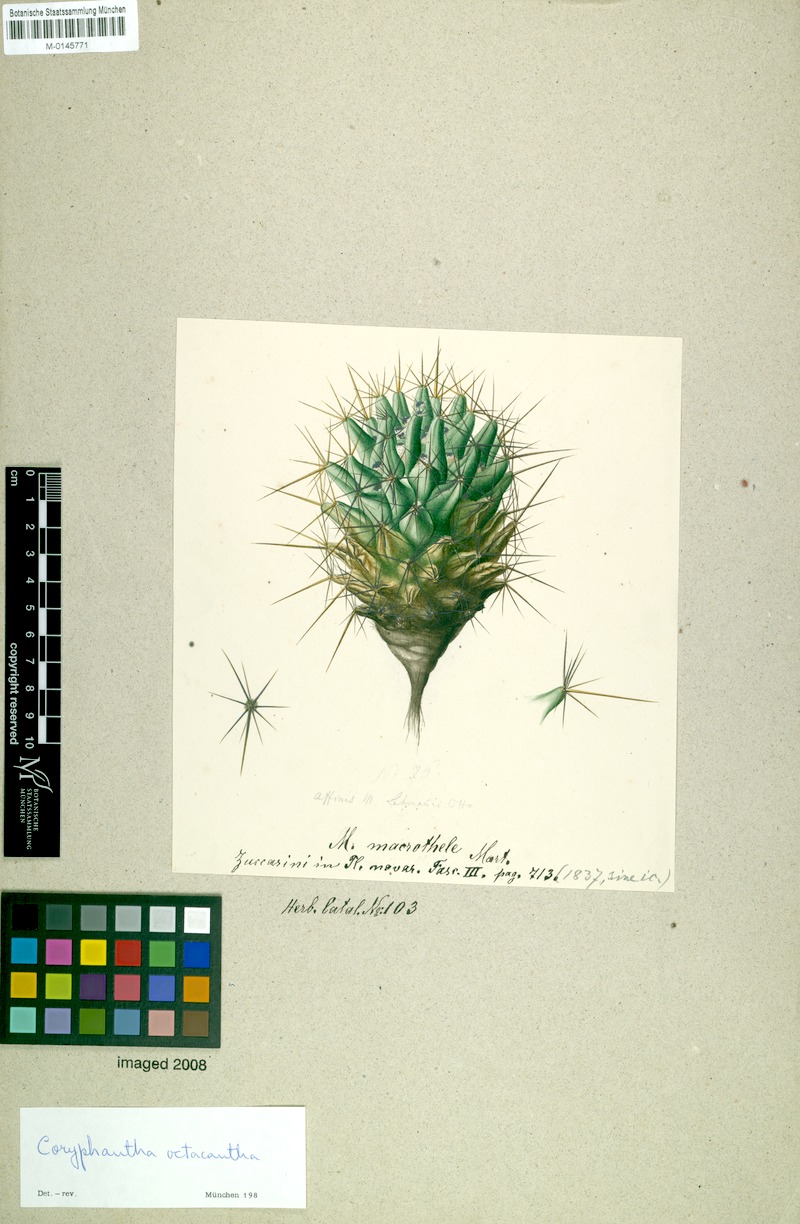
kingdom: Plantae
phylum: Tracheophyta
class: Magnoliopsida
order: Caryophyllales
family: Cactaceae
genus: Coryphantha
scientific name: Coryphantha octacantha
